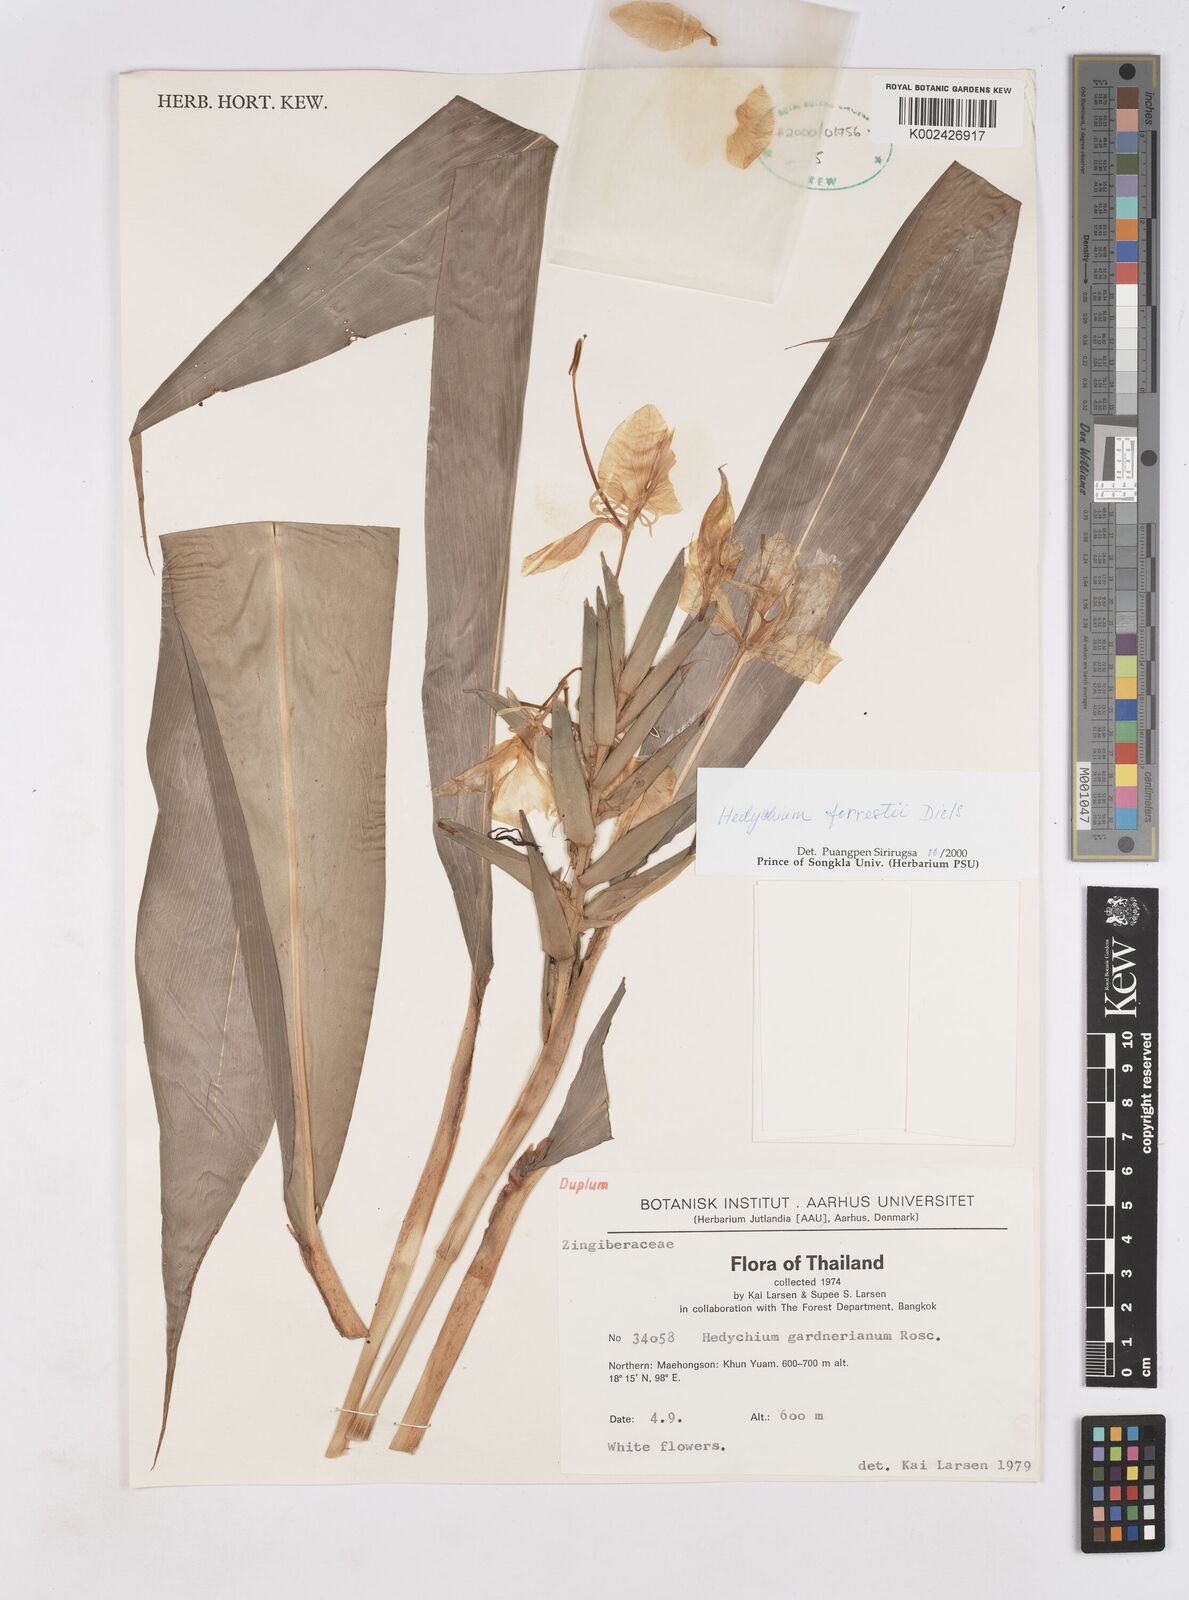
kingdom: Plantae
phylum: Tracheophyta
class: Liliopsida
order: Zingiberales
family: Zingiberaceae
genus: Hedychium
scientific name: Hedychium forrestii
